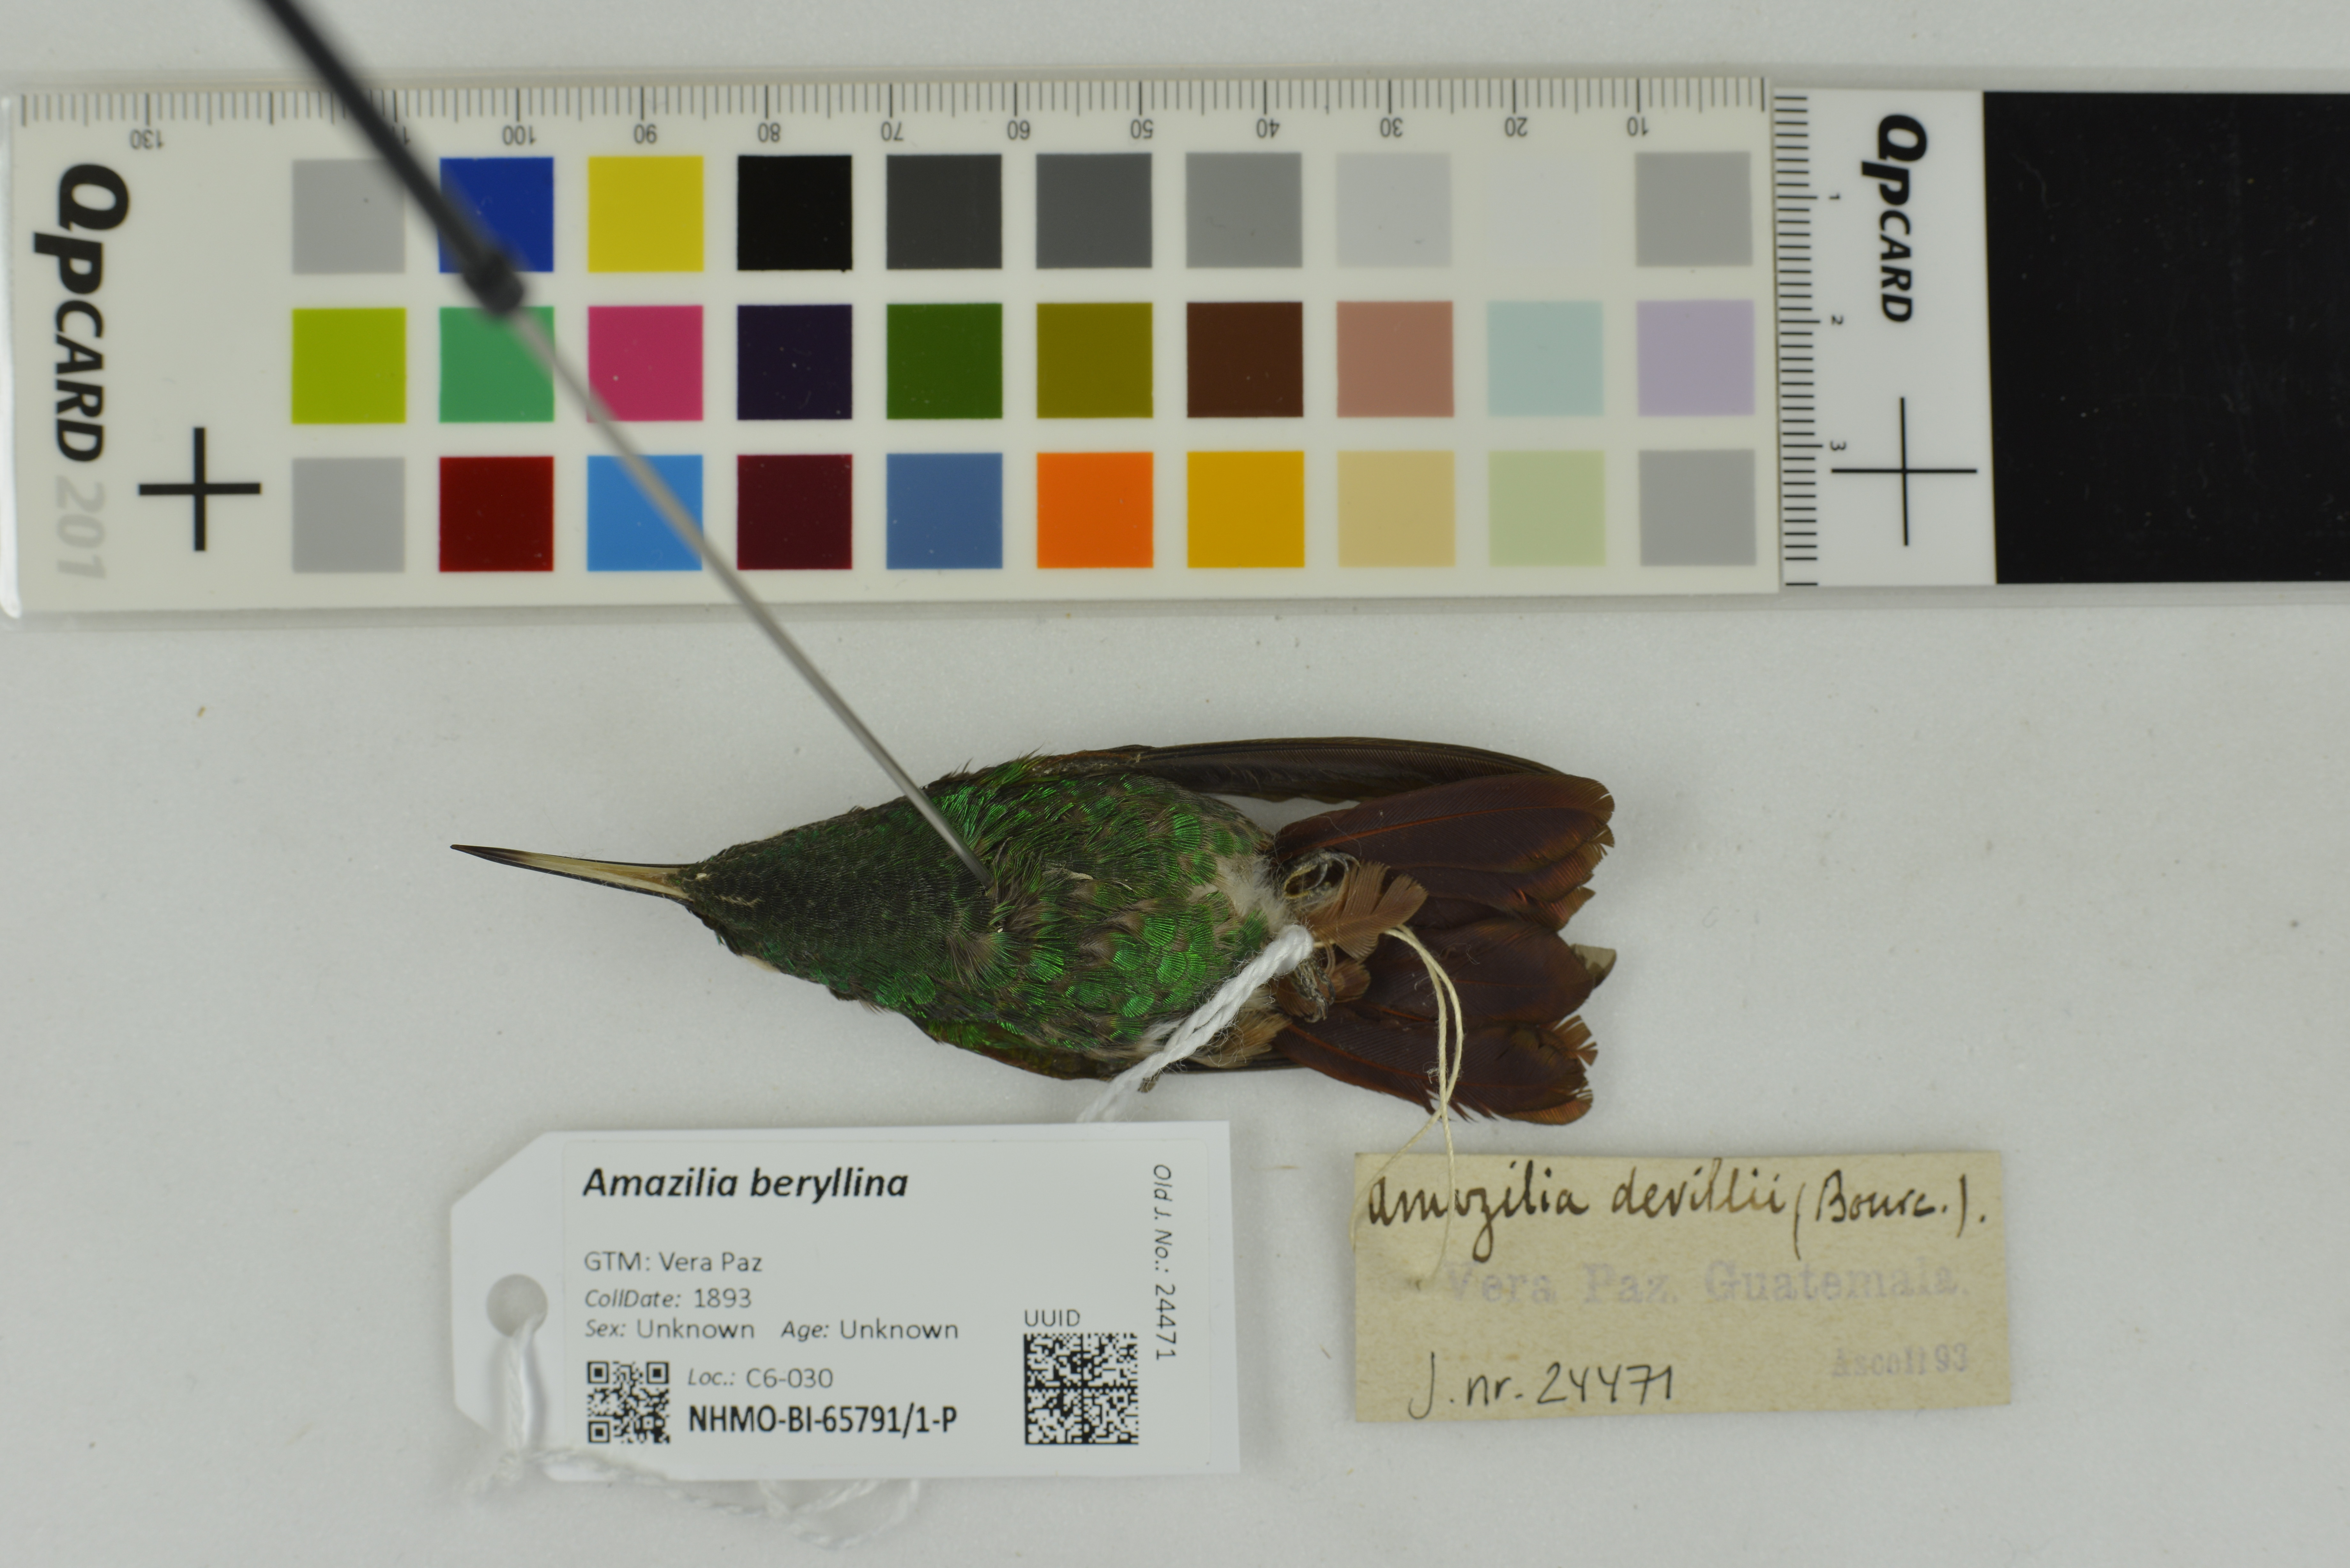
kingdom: Animalia
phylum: Chordata
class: Aves
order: Apodiformes
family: Trochilidae
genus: Saucerottia
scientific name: Saucerottia beryllina
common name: Berylline hummingbird
